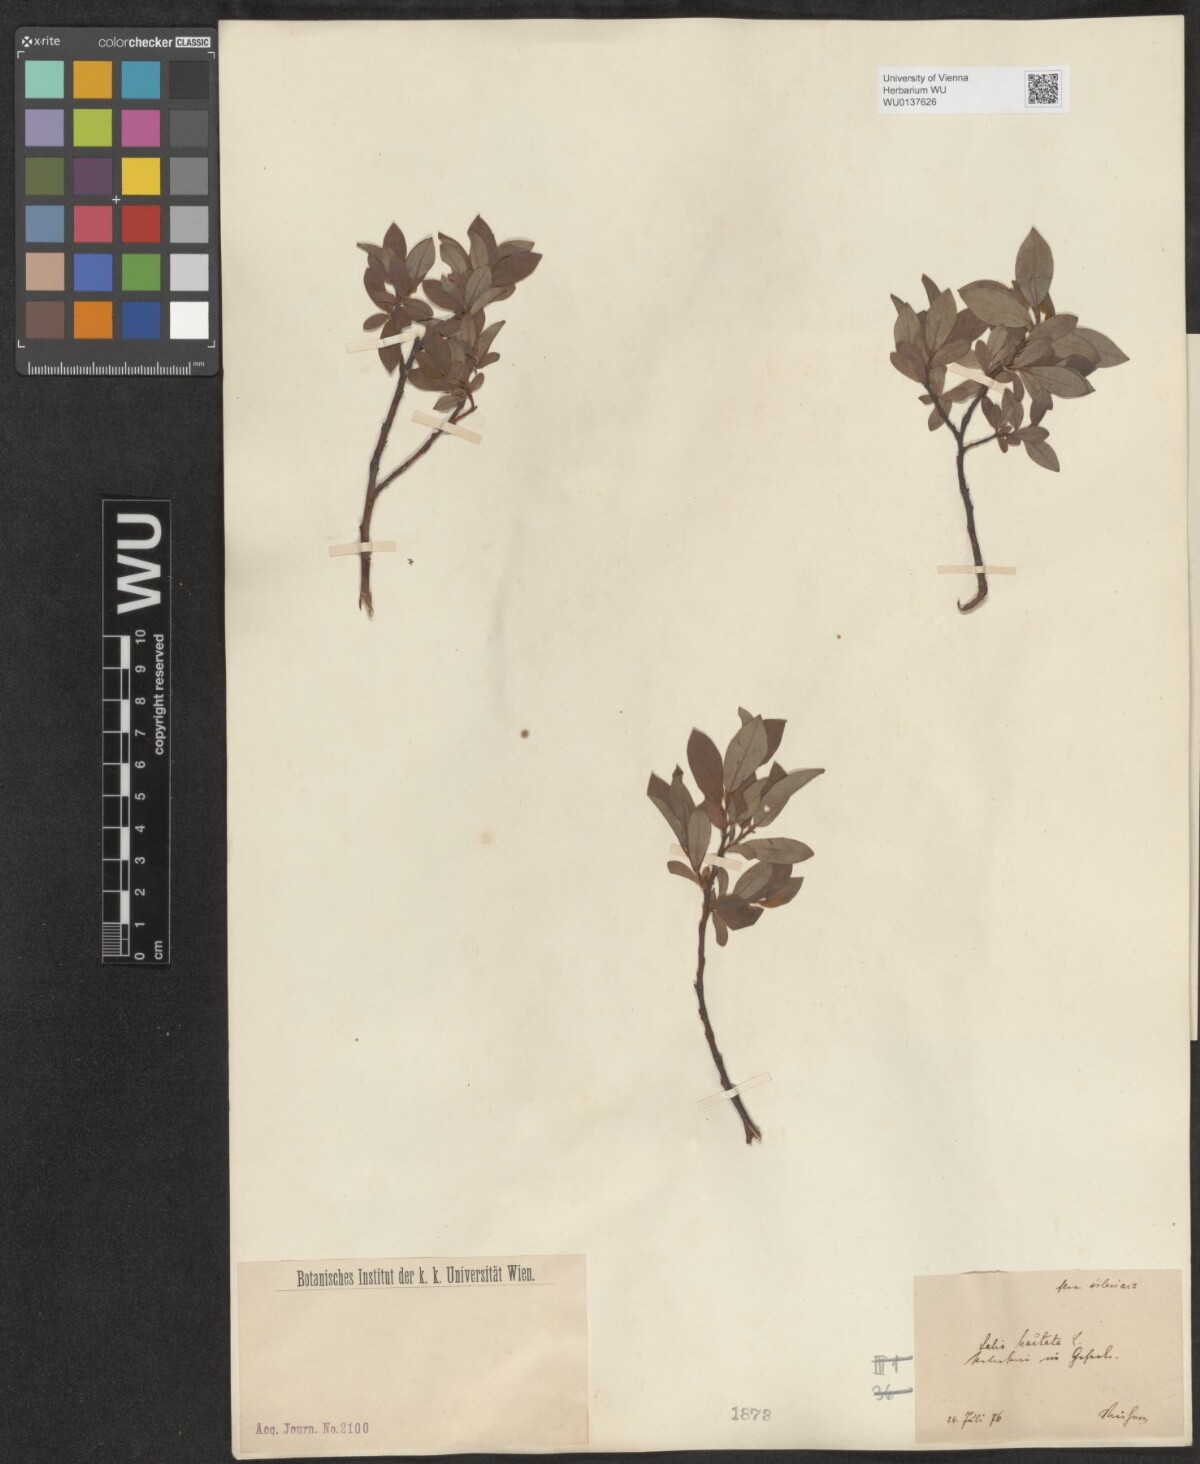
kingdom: Plantae
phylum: Tracheophyta
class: Magnoliopsida
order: Malpighiales
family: Salicaceae
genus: Salix
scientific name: Salix hastata
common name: Halberd willow
